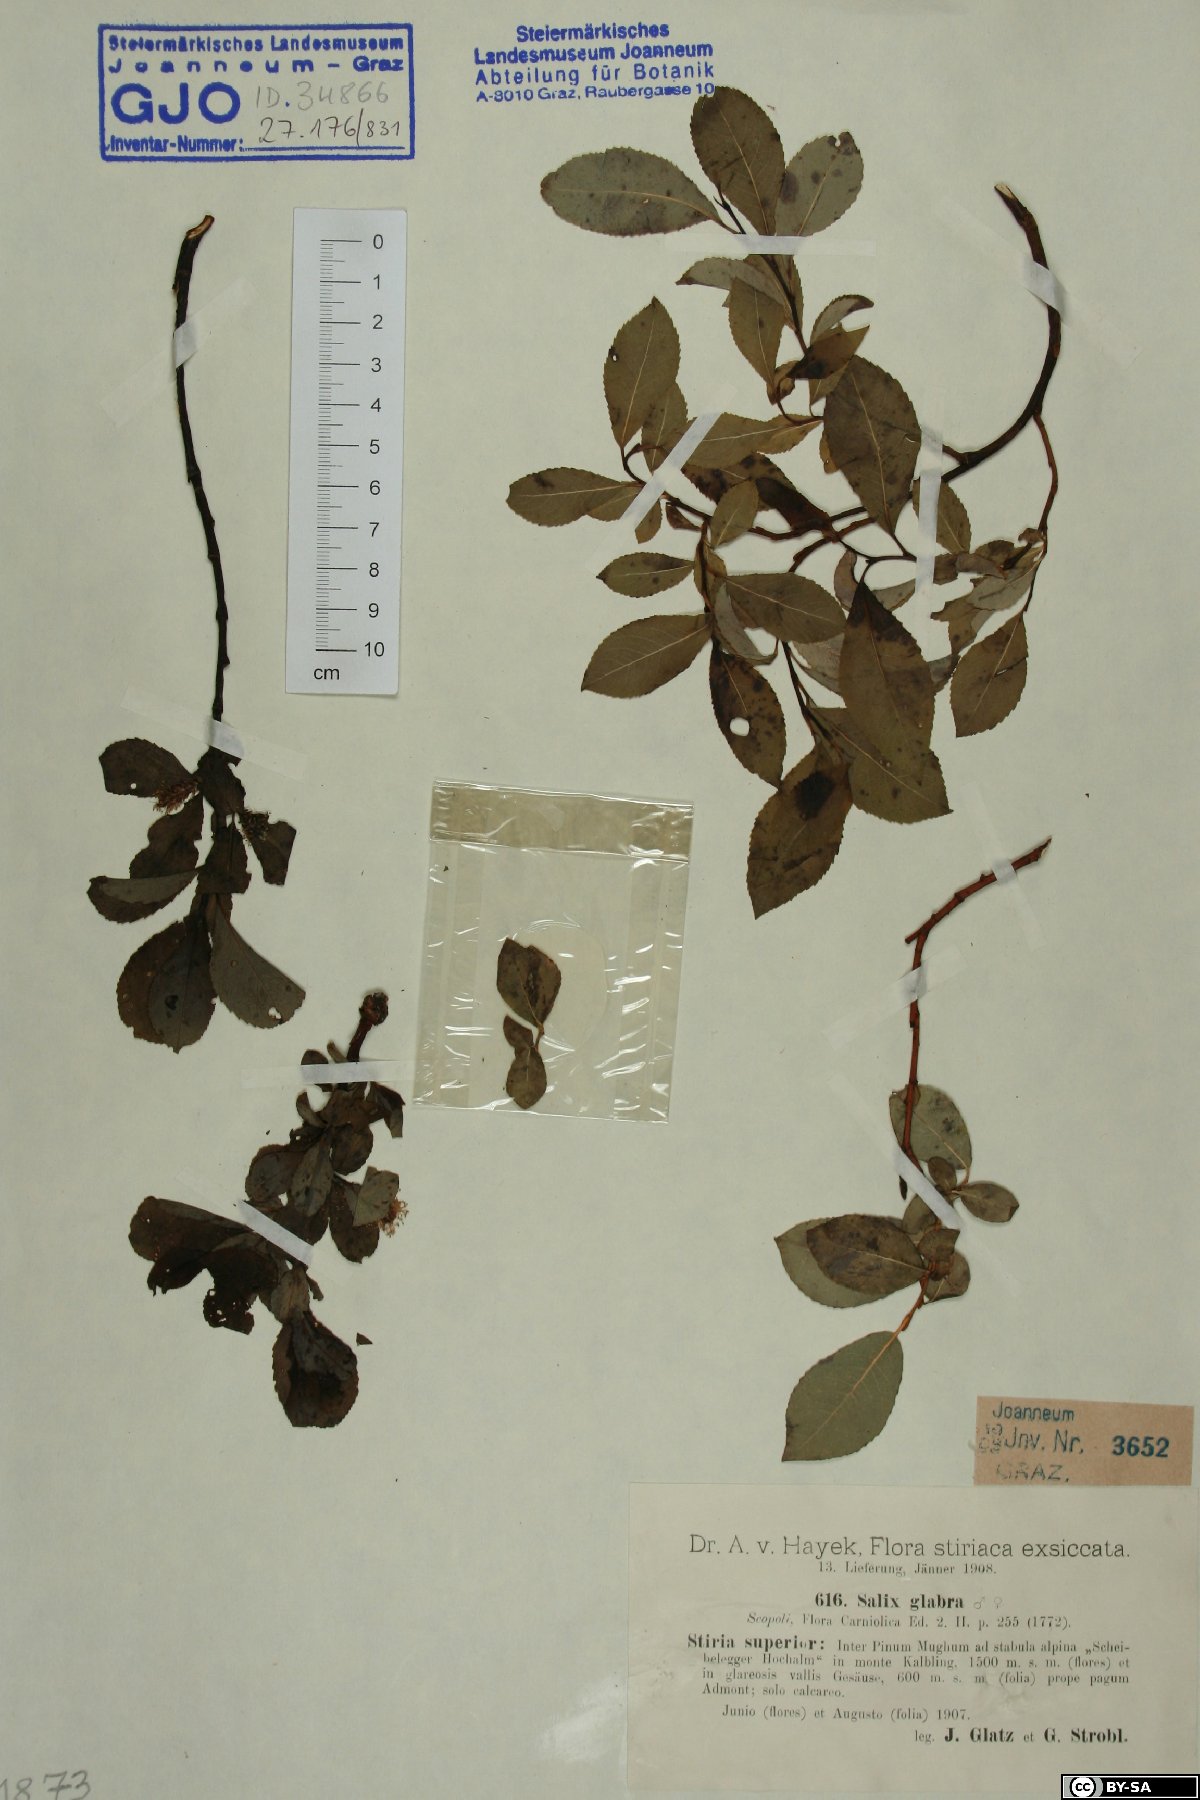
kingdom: Plantae
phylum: Tracheophyta
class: Magnoliopsida
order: Malpighiales
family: Salicaceae
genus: Salix
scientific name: Salix glabra
